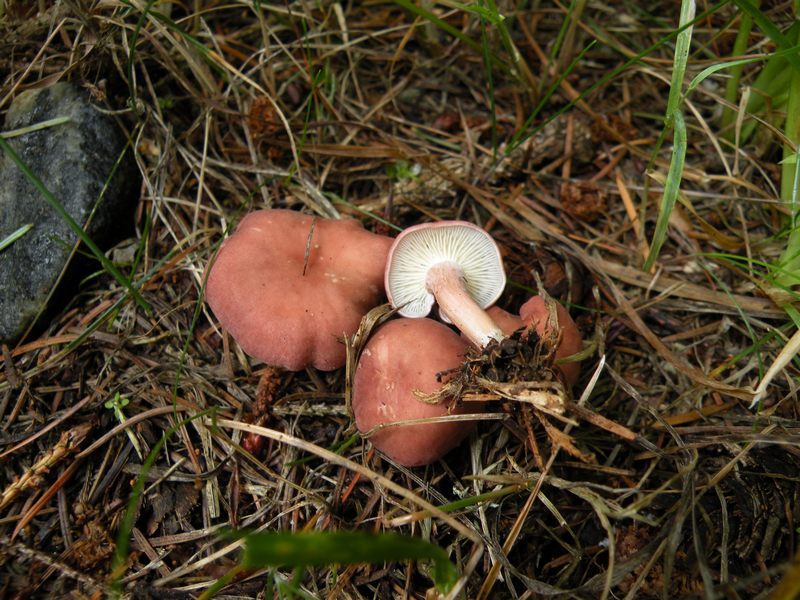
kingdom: Fungi
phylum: Basidiomycota
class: Agaricomycetes
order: Agaricales
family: Lyophyllaceae
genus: Calocybe
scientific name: Calocybe carnea
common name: rosa fagerhat
